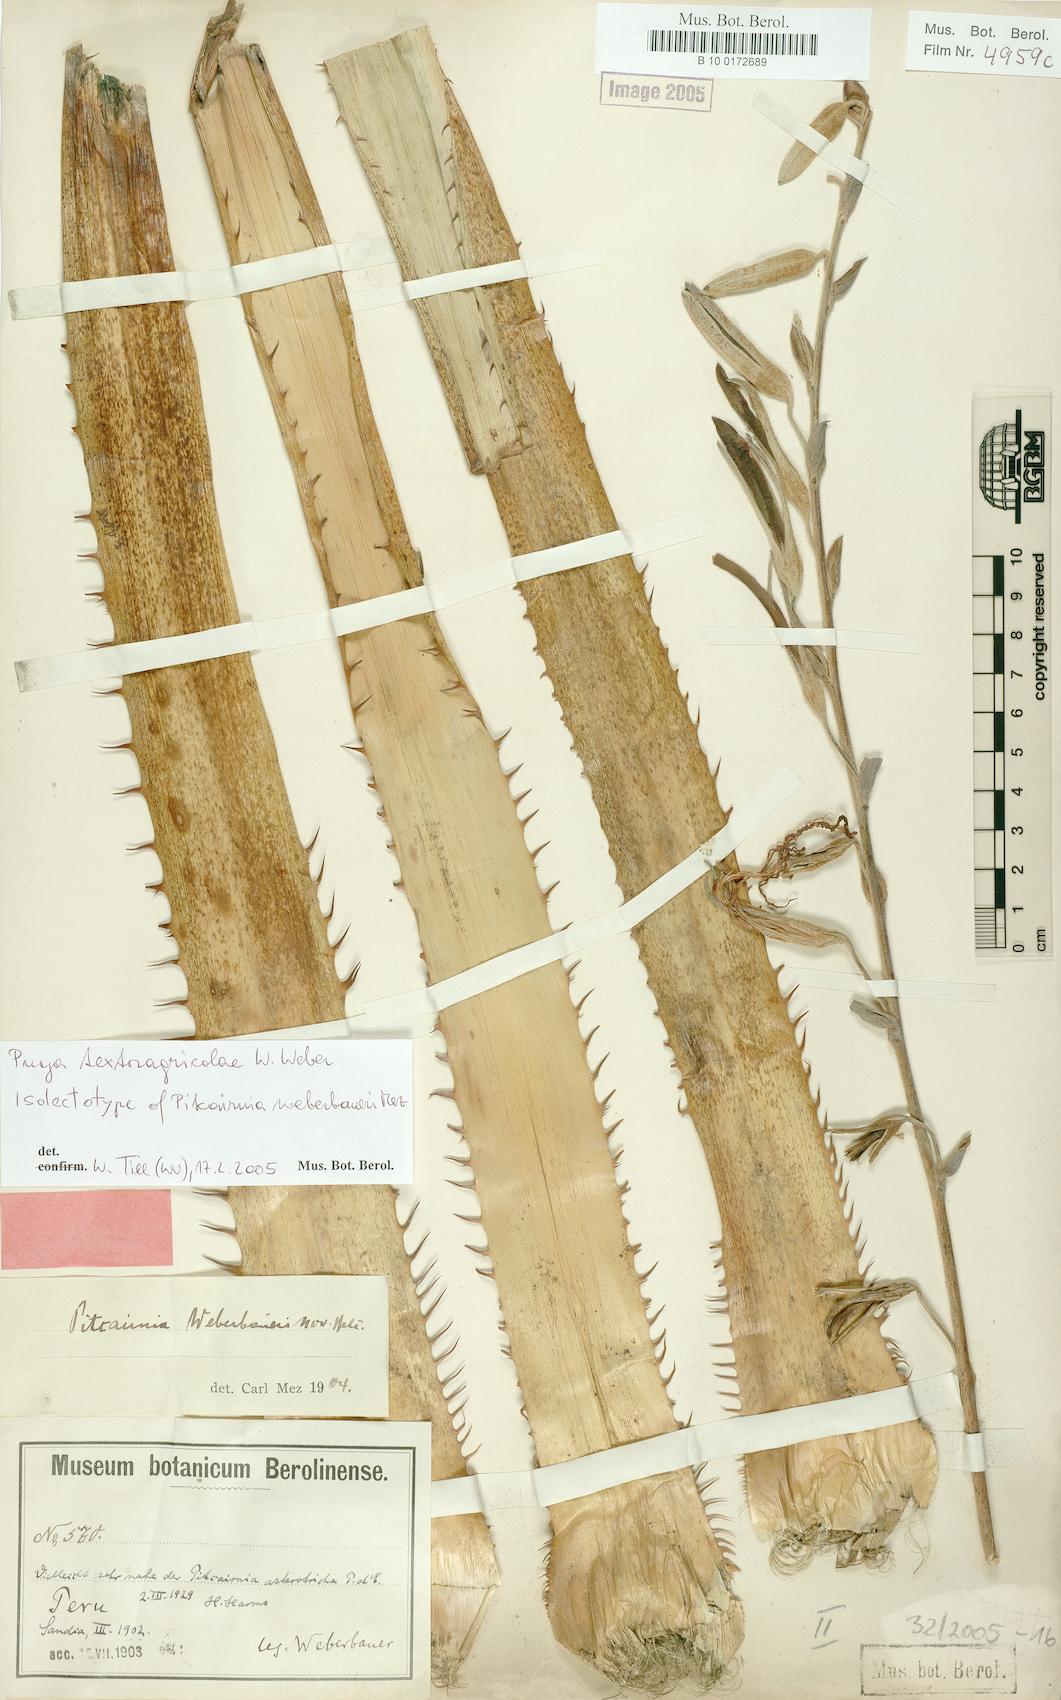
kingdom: Plantae
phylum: Tracheophyta
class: Liliopsida
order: Poales
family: Bromeliaceae
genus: Puya
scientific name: Puya textoragicolae
